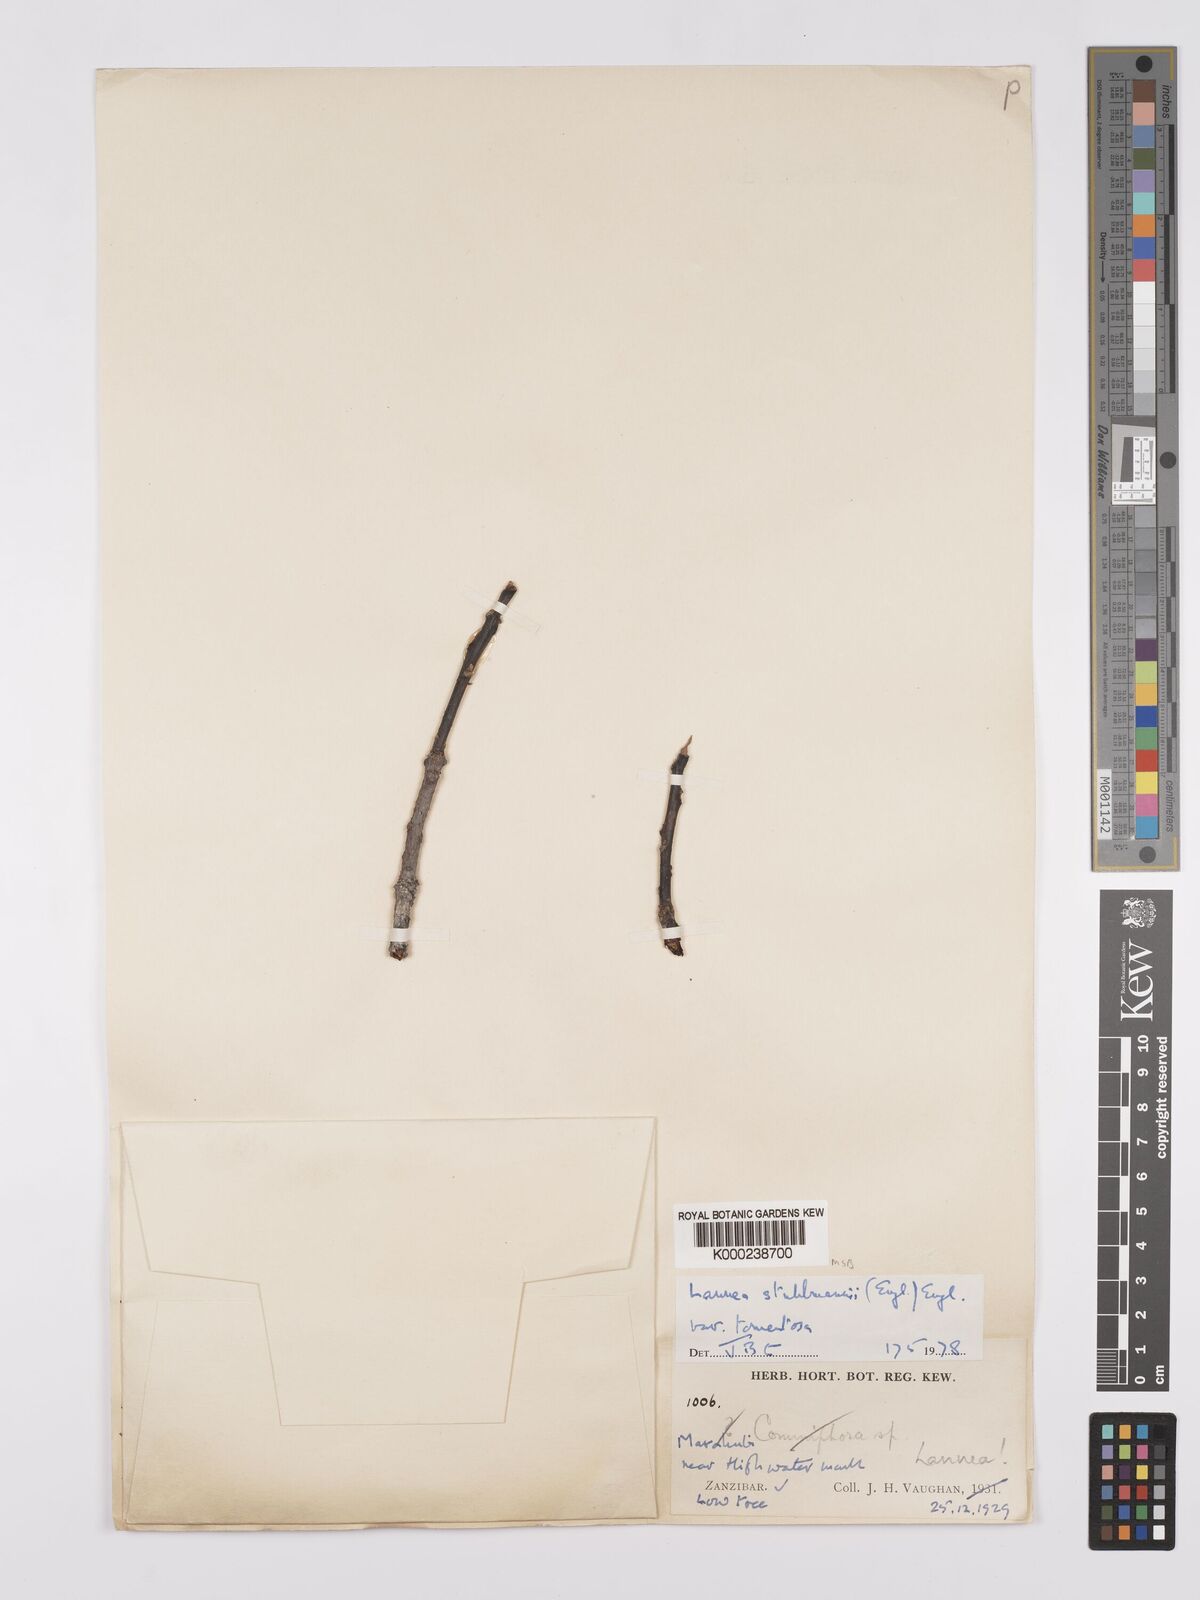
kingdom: Plantae
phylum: Tracheophyta
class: Magnoliopsida
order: Sapindales
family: Anacardiaceae
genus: Lannea
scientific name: Lannea schweinfurthii
